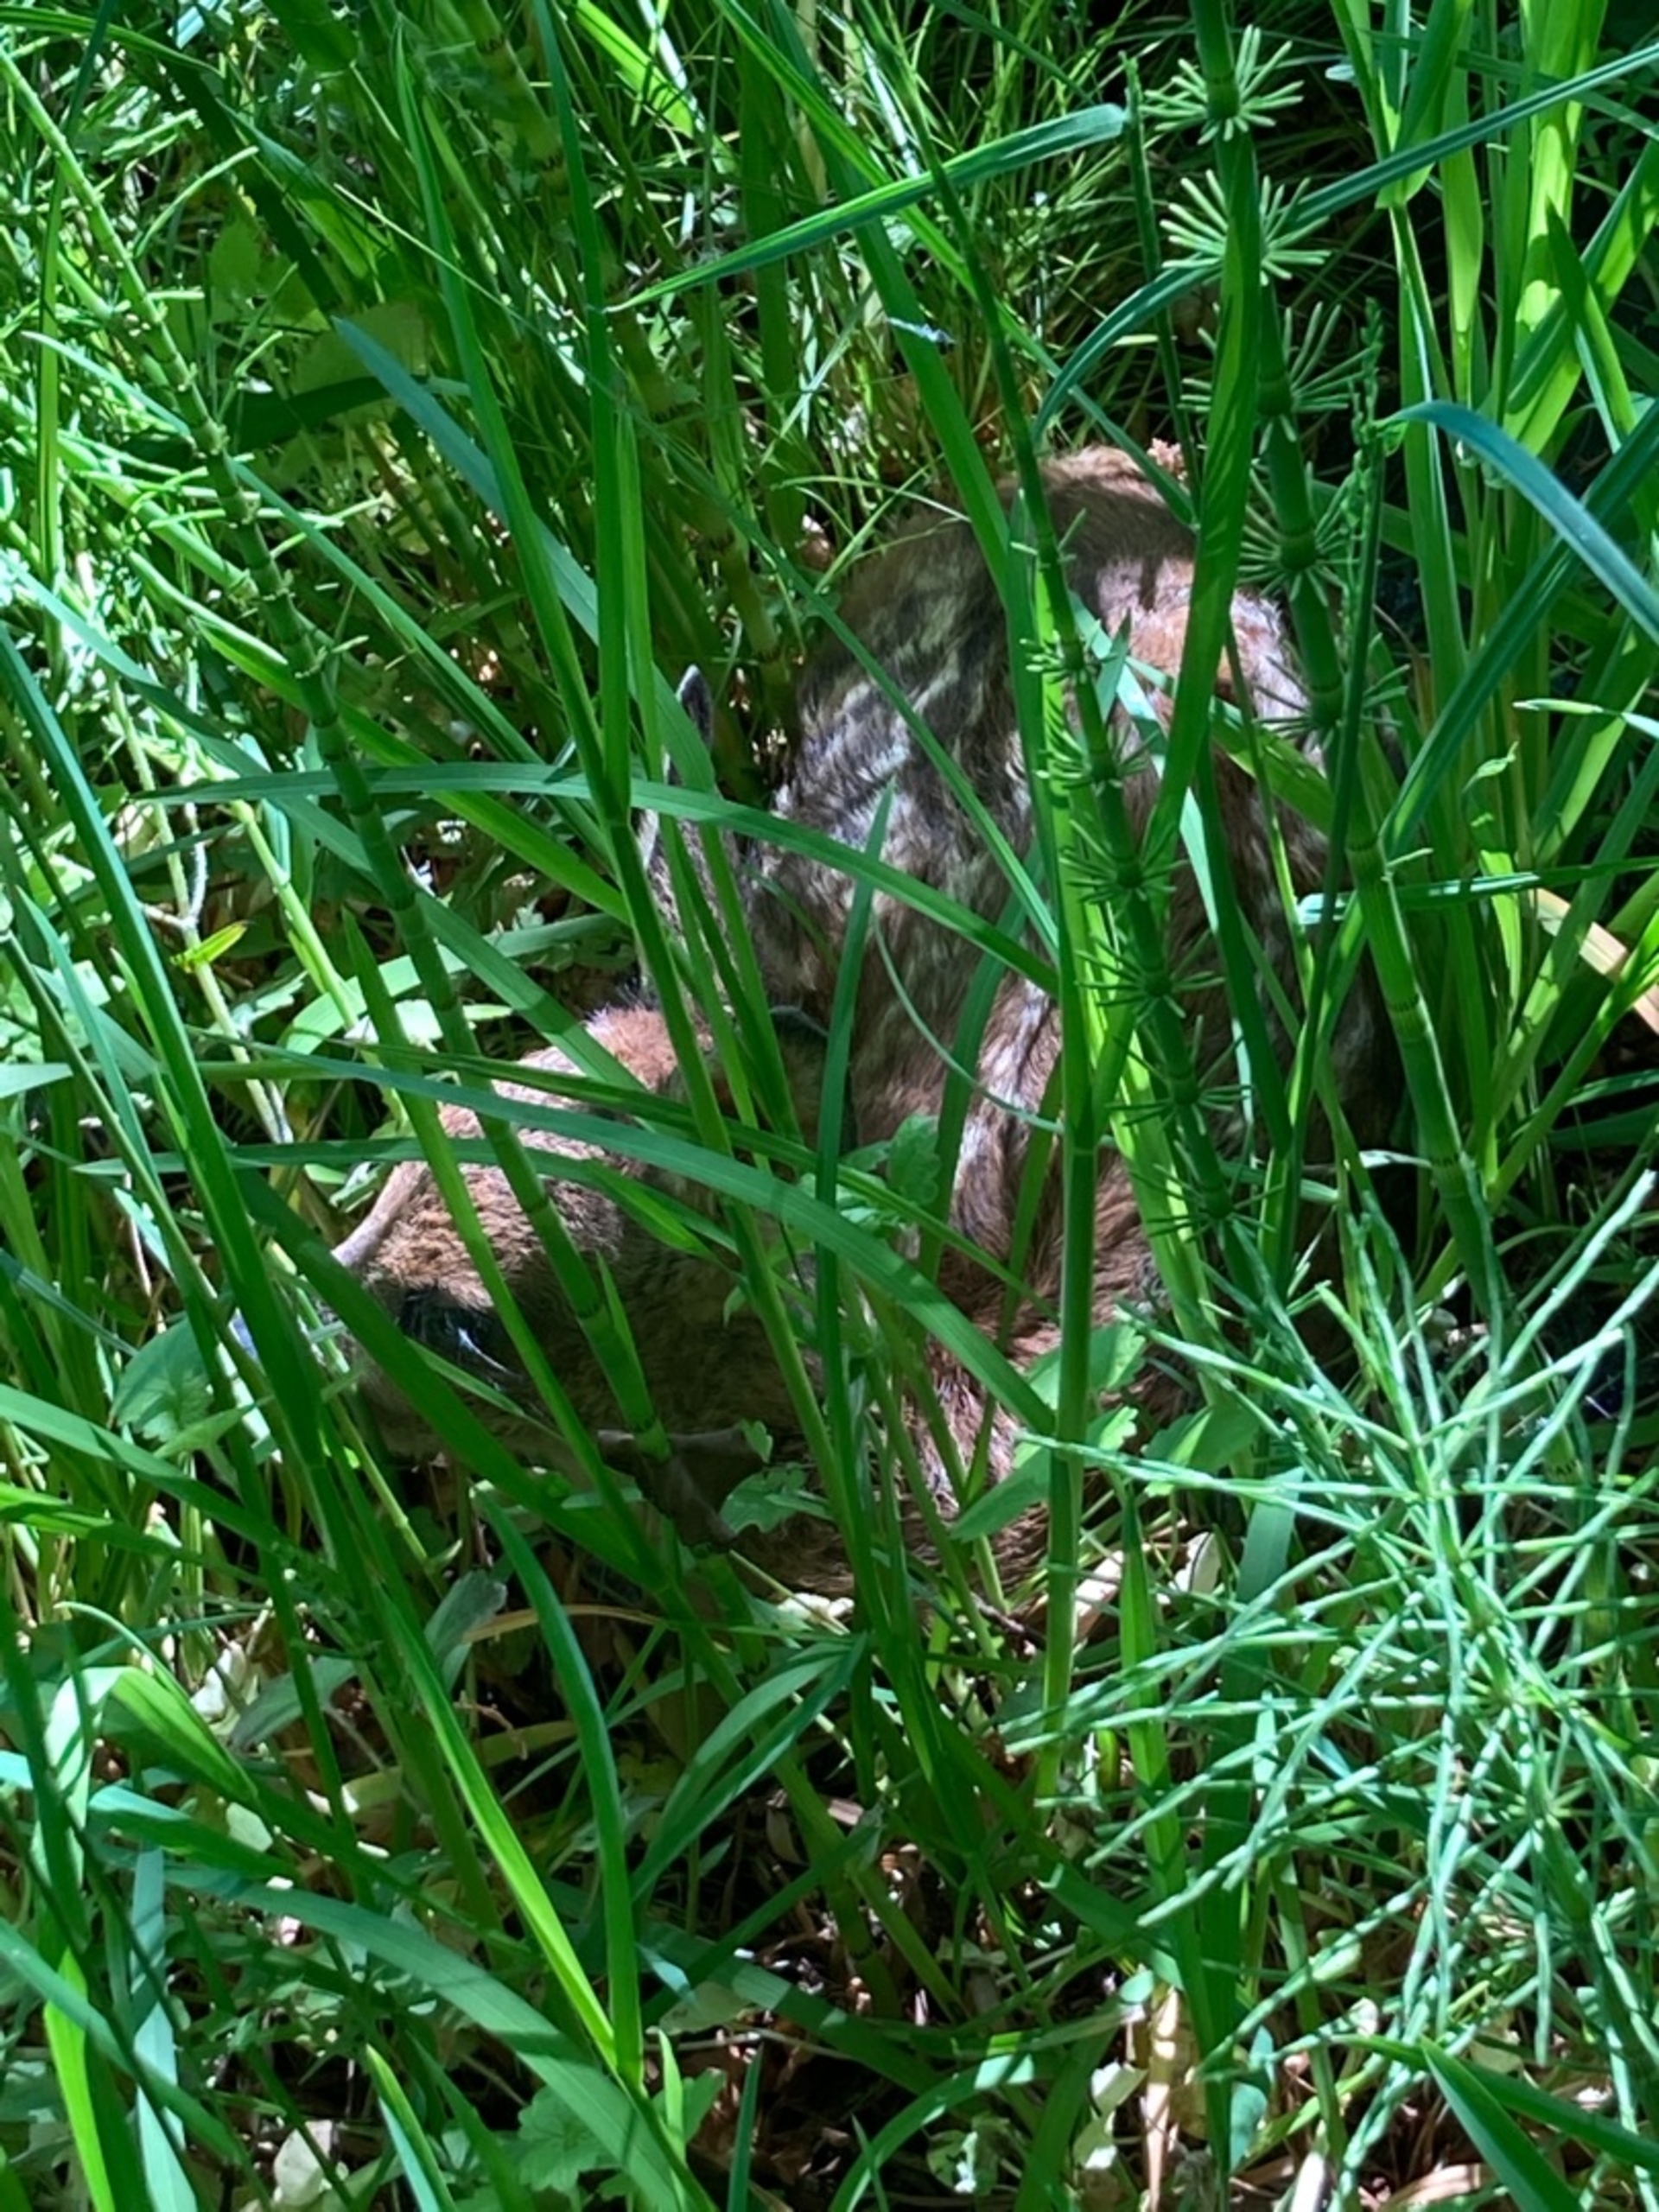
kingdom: Animalia
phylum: Chordata
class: Mammalia
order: Artiodactyla
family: Cervidae
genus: Capreolus
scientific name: Capreolus capreolus
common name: Rådyr
